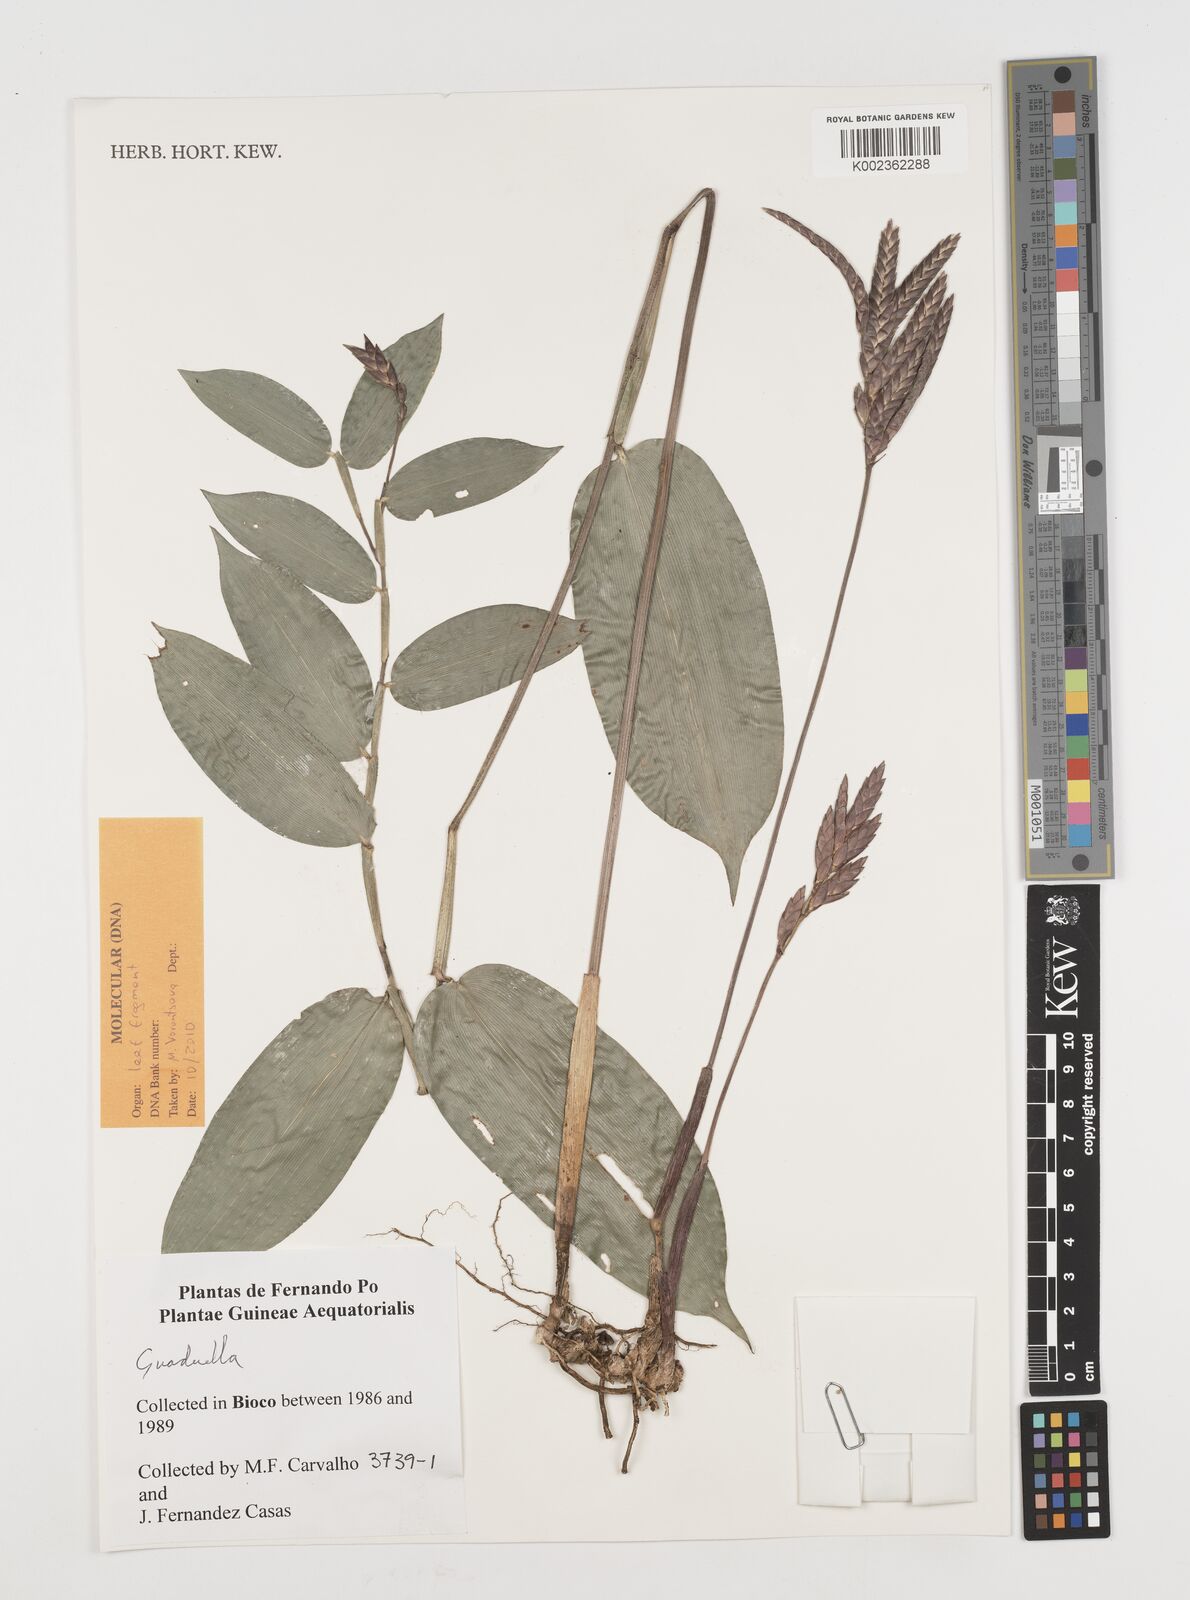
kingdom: Plantae
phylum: Tracheophyta
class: Liliopsida
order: Poales
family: Poaceae
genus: Guaduella
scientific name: Guaduella
